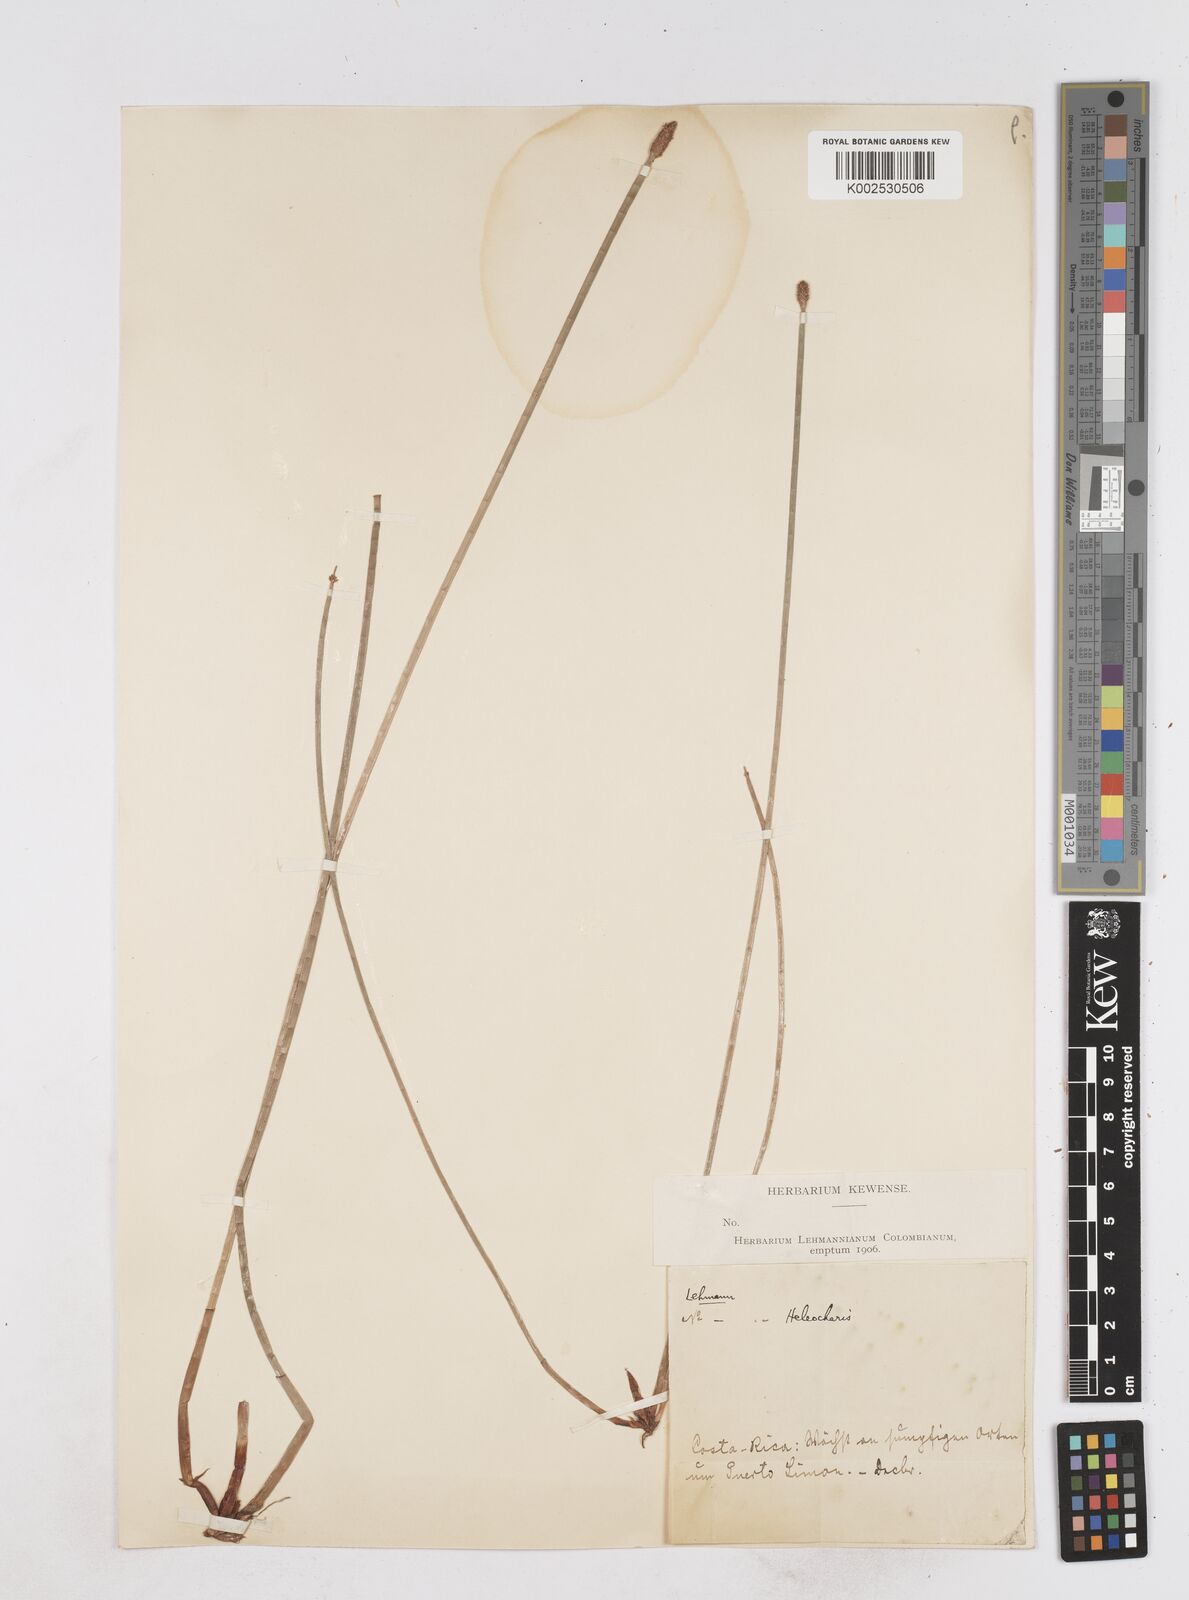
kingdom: Plantae
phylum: Tracheophyta
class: Liliopsida
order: Poales
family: Cyperaceae
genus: Eleocharis
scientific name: Eleocharis montana
